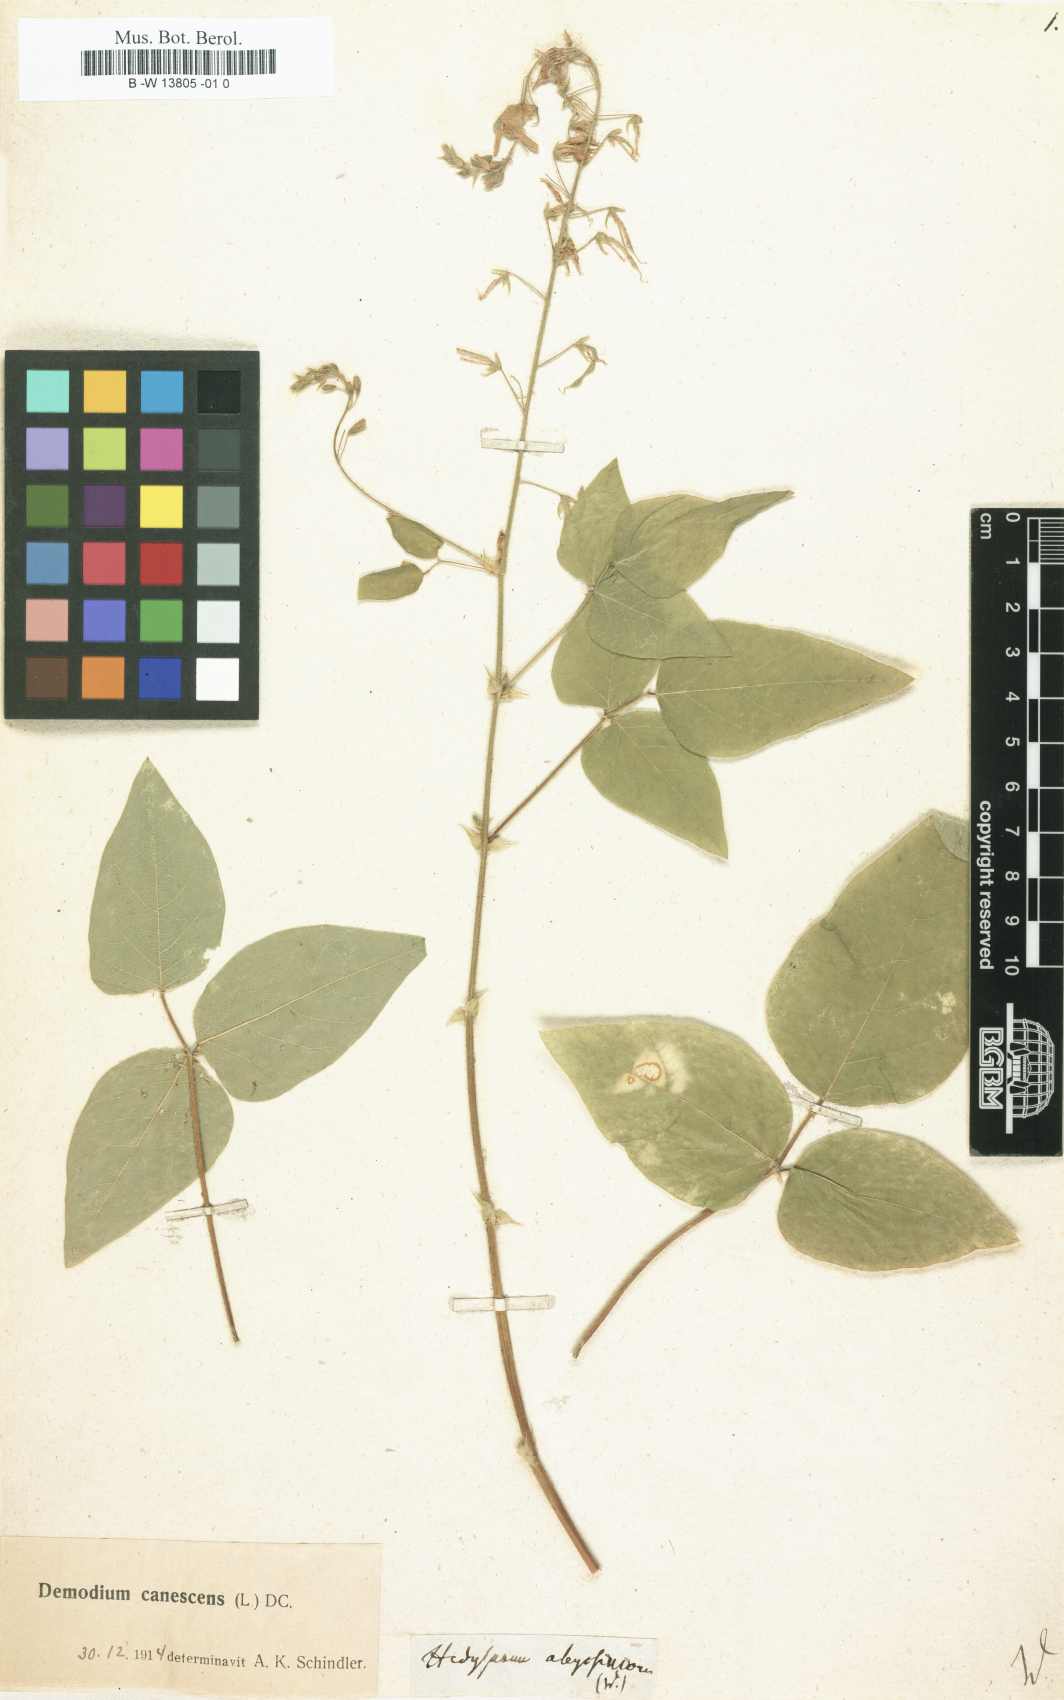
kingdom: Plantae
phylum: Tracheophyta
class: Magnoliopsida
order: Fabales
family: Fabaceae
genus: Hedysarum
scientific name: Hedysarum
